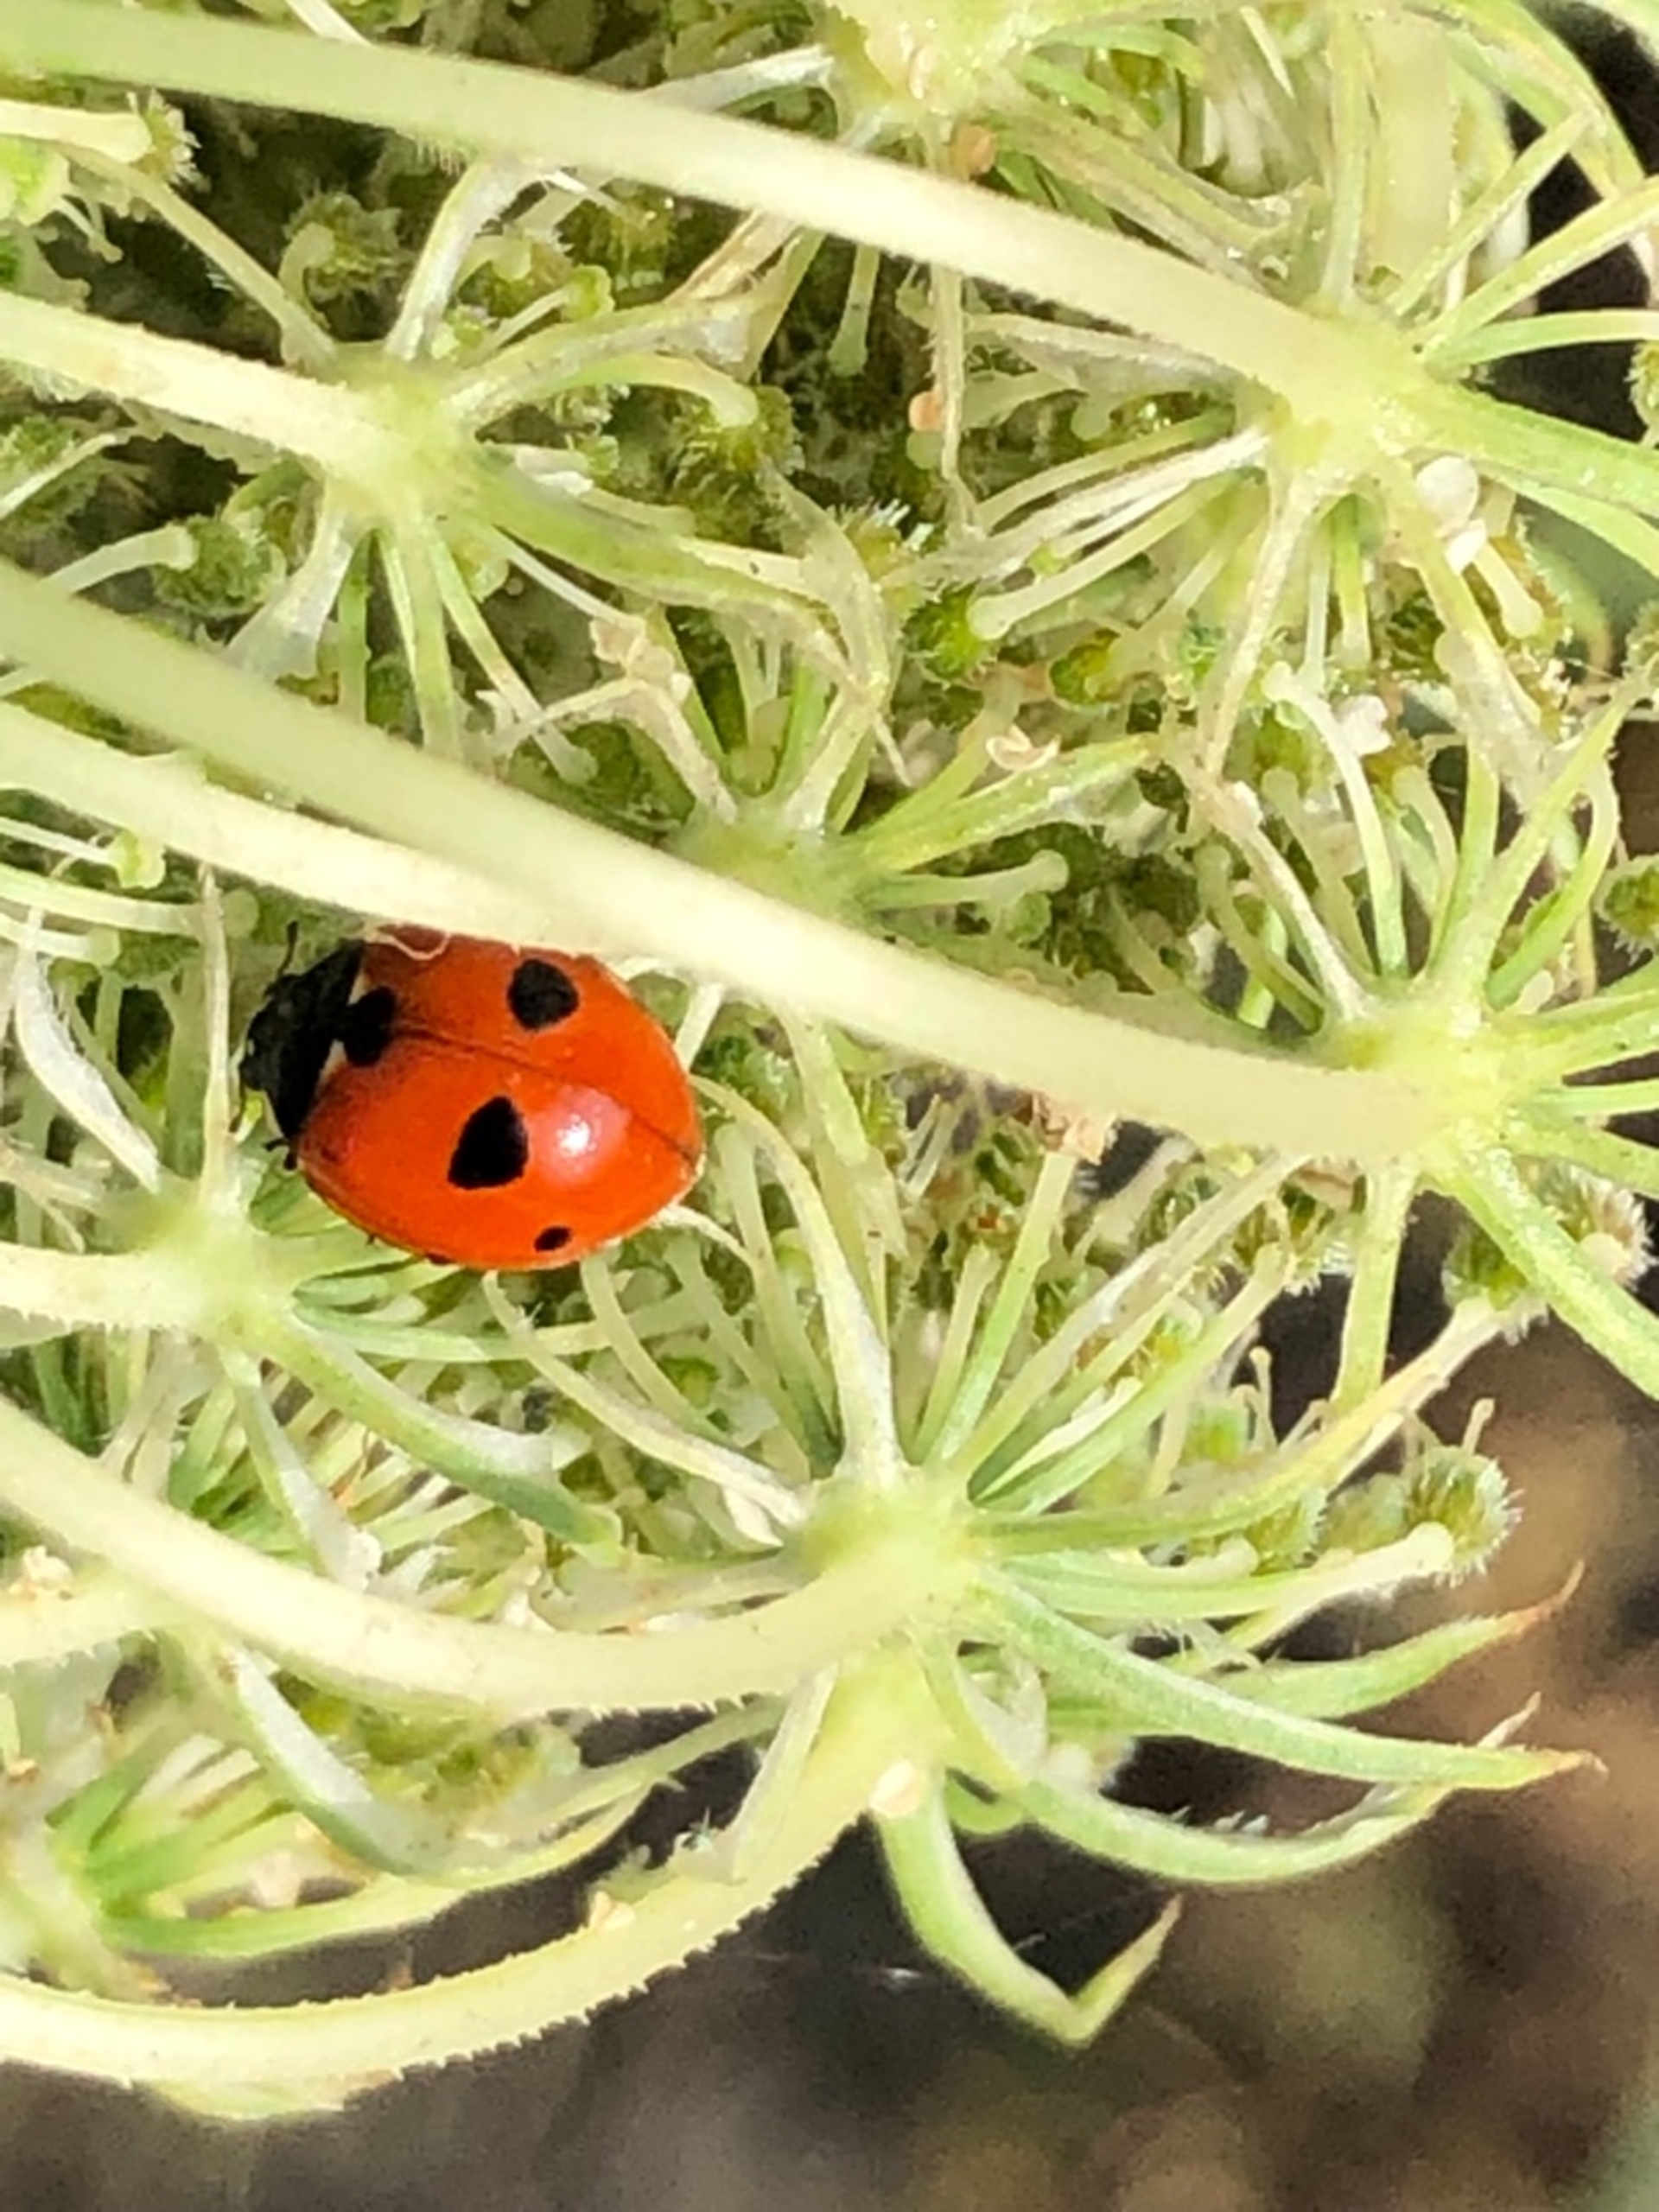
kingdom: Animalia
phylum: Arthropoda
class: Insecta
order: Coleoptera
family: Coccinellidae
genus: Coccinella
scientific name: Coccinella quinquepunctata
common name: Femplettet mariehøne
